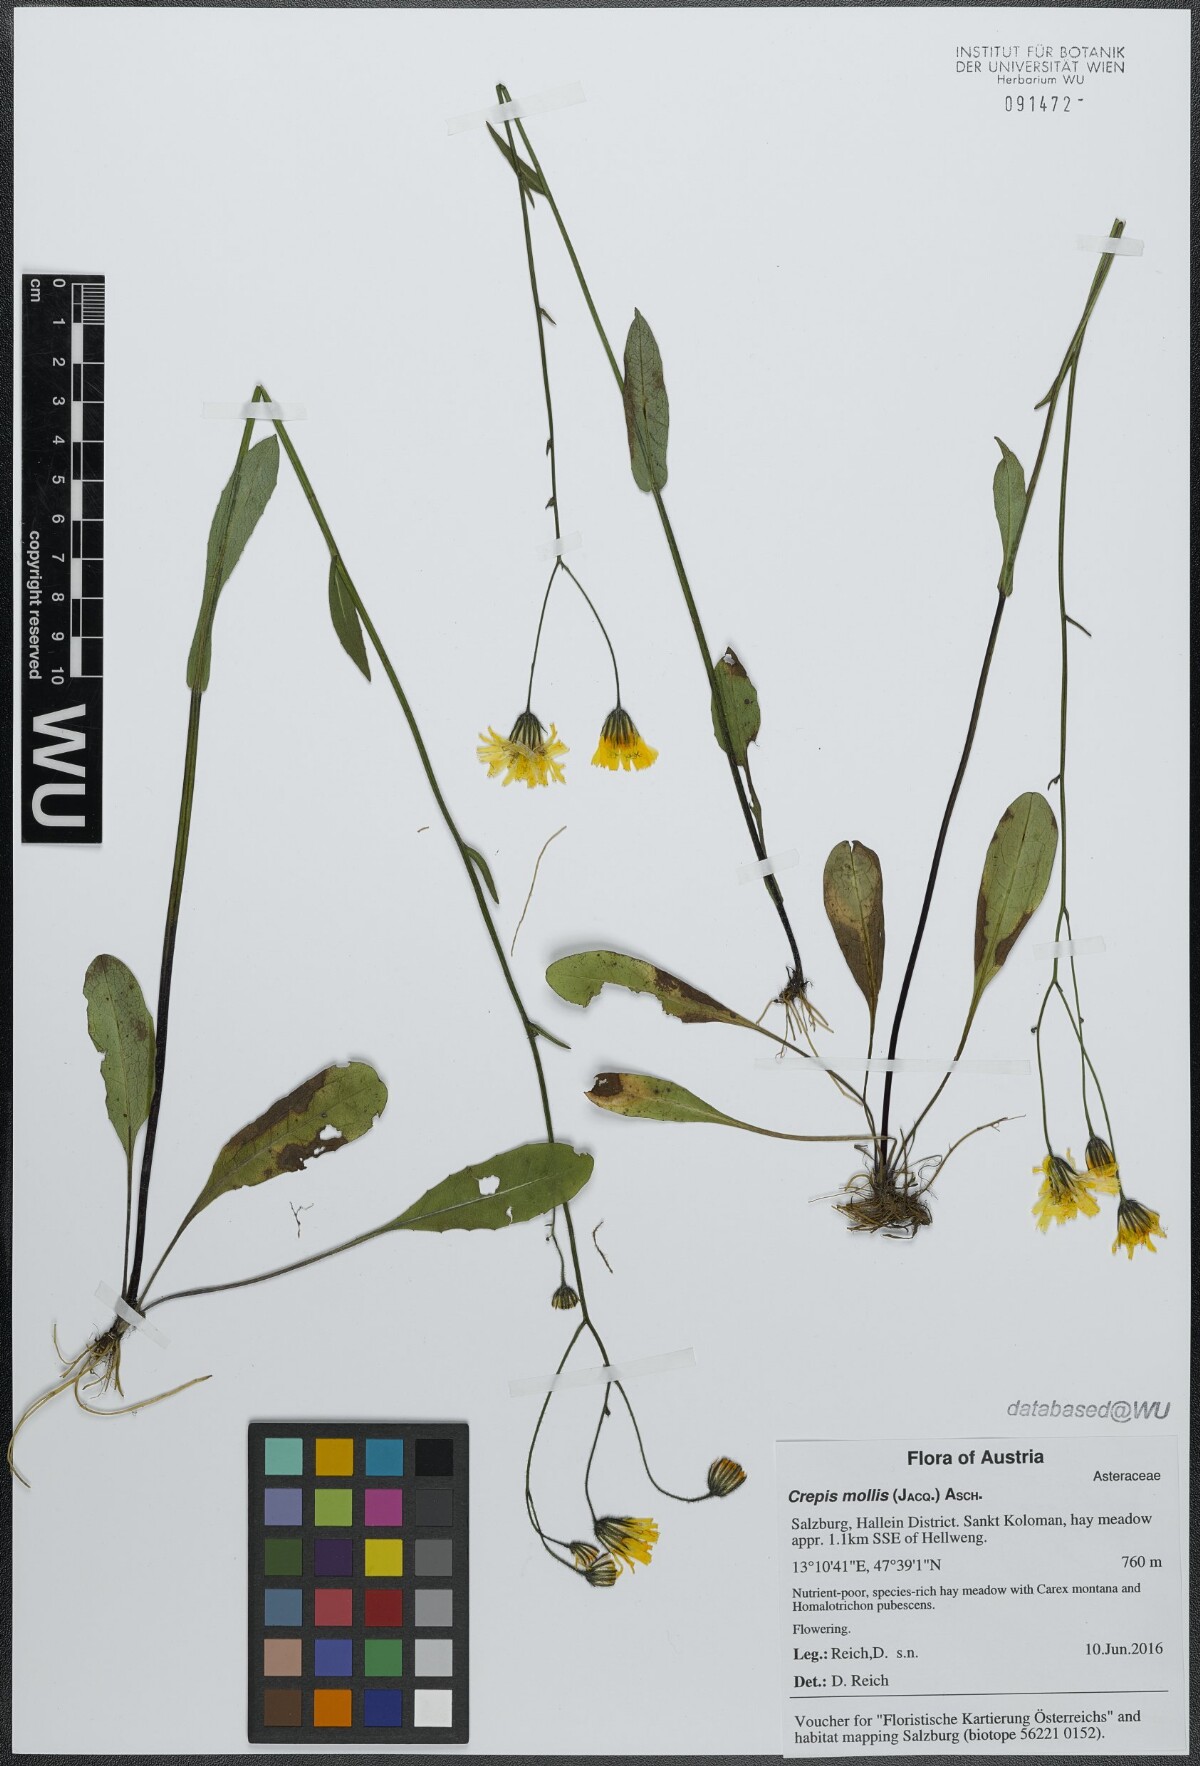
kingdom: Plantae
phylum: Tracheophyta
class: Magnoliopsida
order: Asterales
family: Asteraceae
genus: Crepis
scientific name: Crepis mollis
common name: Northern hawk's-beard
